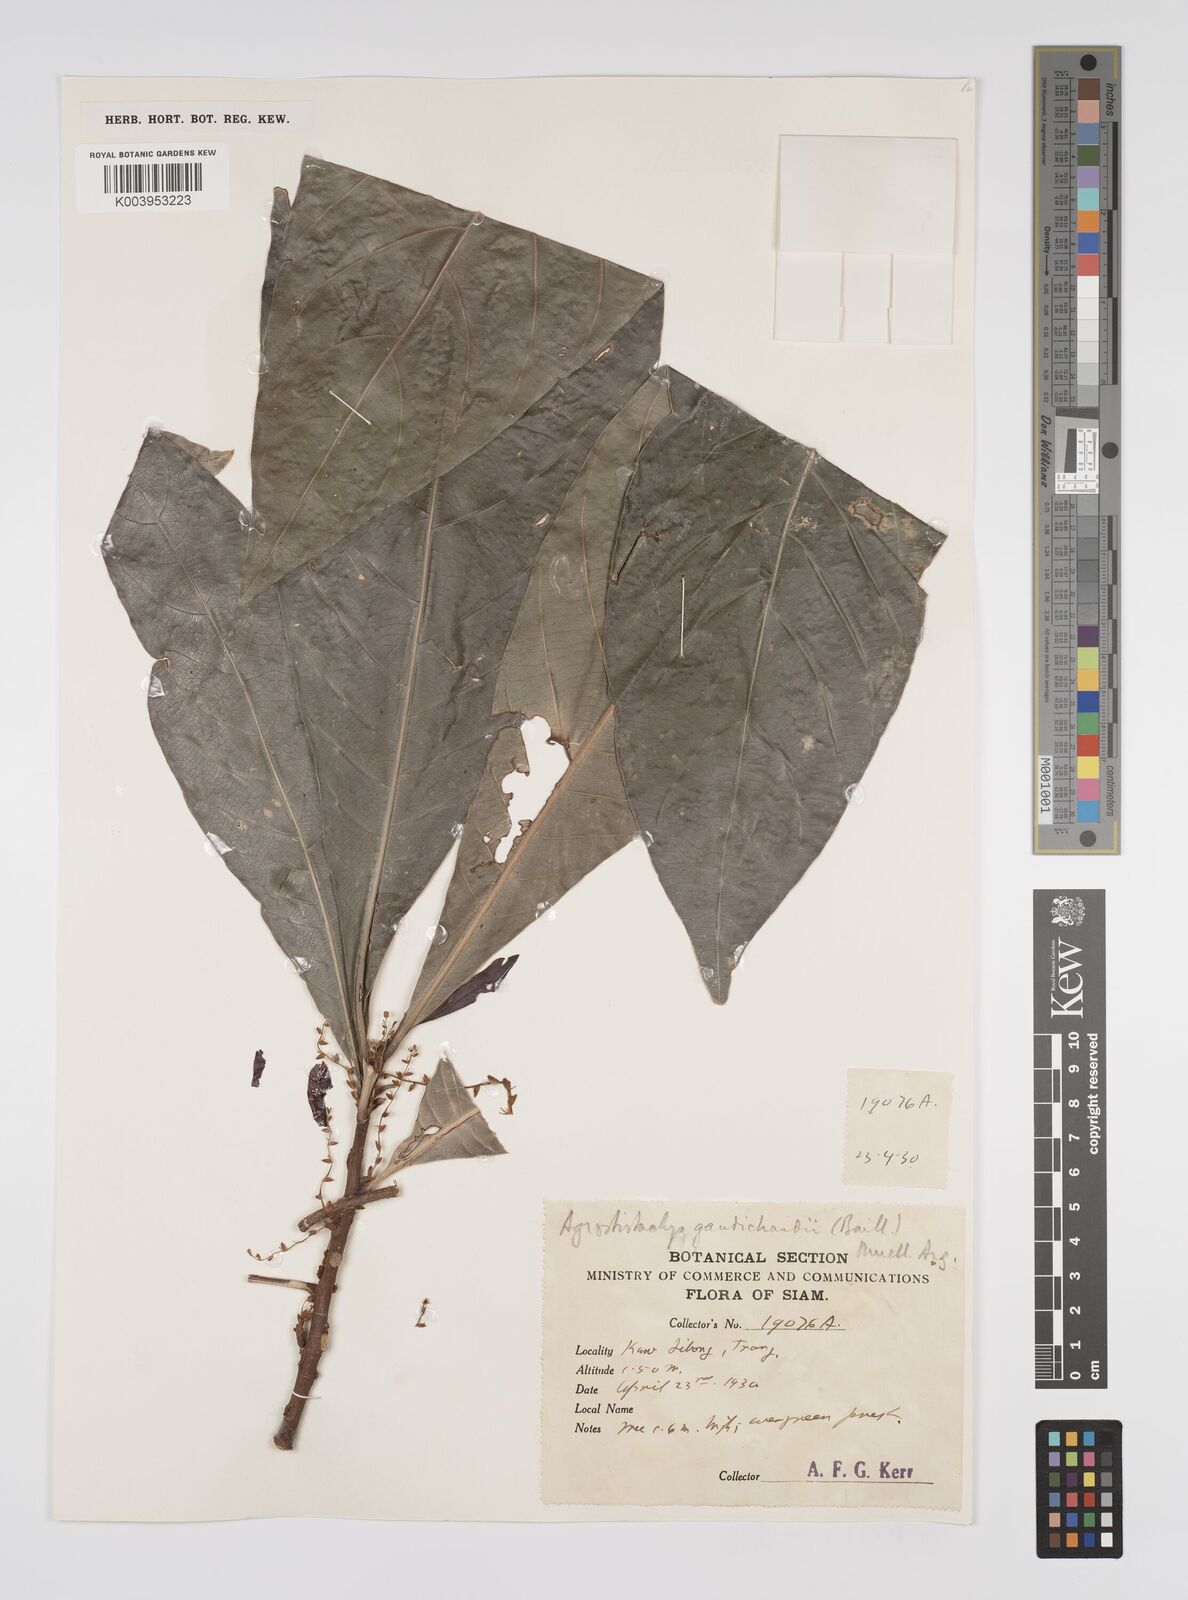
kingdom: Plantae
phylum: Tracheophyta
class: Magnoliopsida
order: Malpighiales
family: Euphorbiaceae
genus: Agrostistachys
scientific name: Agrostistachys gaudichaudii
